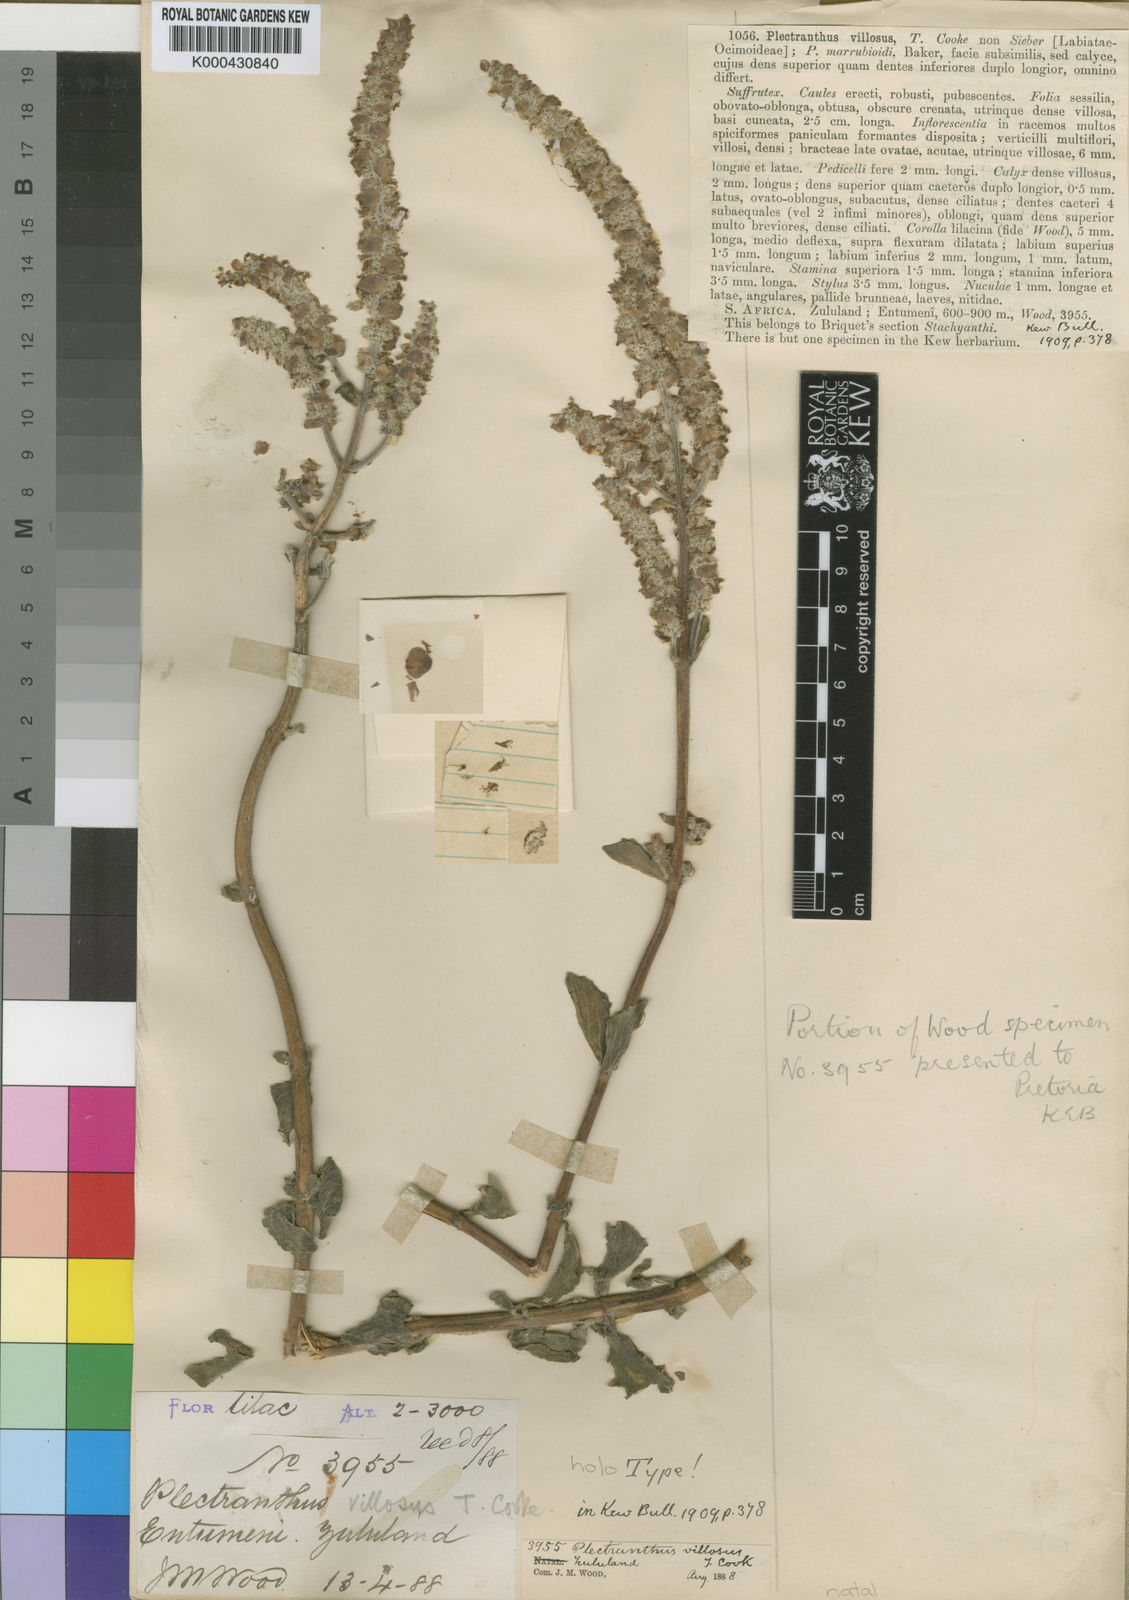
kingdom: Plantae
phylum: Tracheophyta
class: Magnoliopsida
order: Lamiales
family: Lamiaceae
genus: Coleus
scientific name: Coleus cylindraceus
